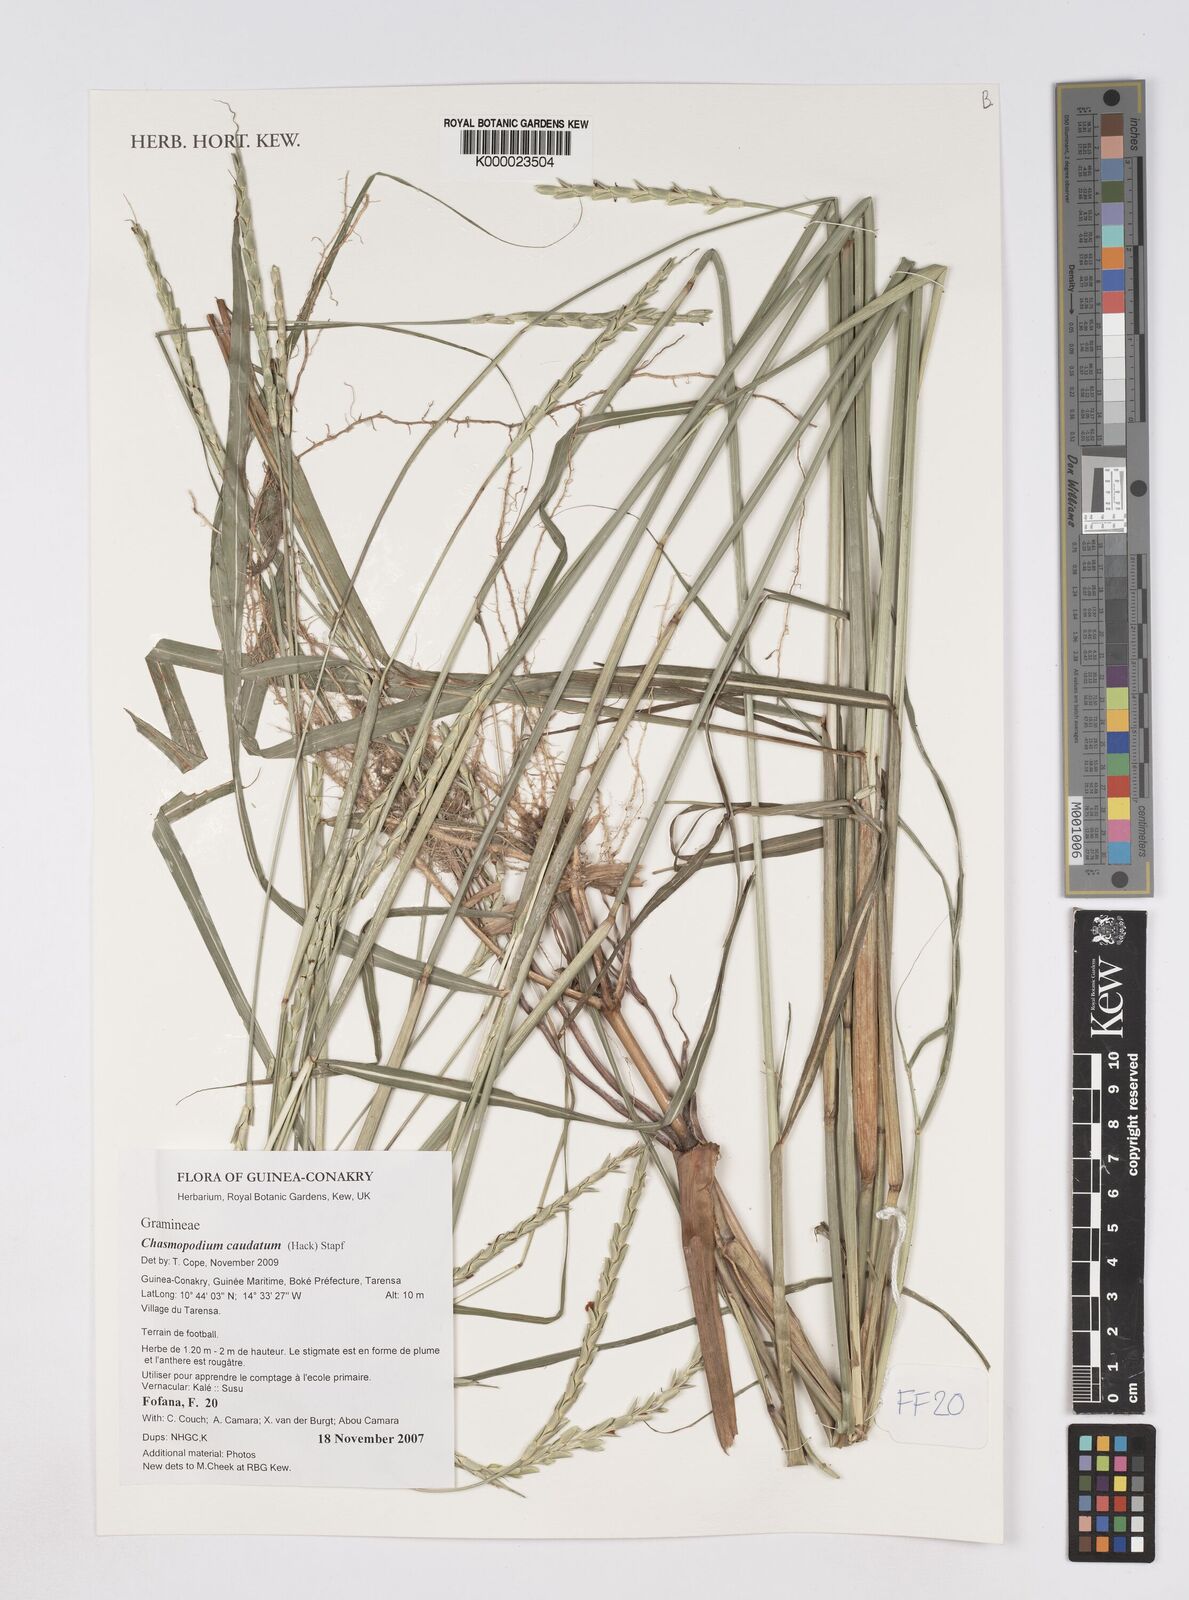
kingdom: Plantae
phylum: Tracheophyta
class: Liliopsida
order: Poales
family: Poaceae
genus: Chasmopodium
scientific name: Chasmopodium caudatum
